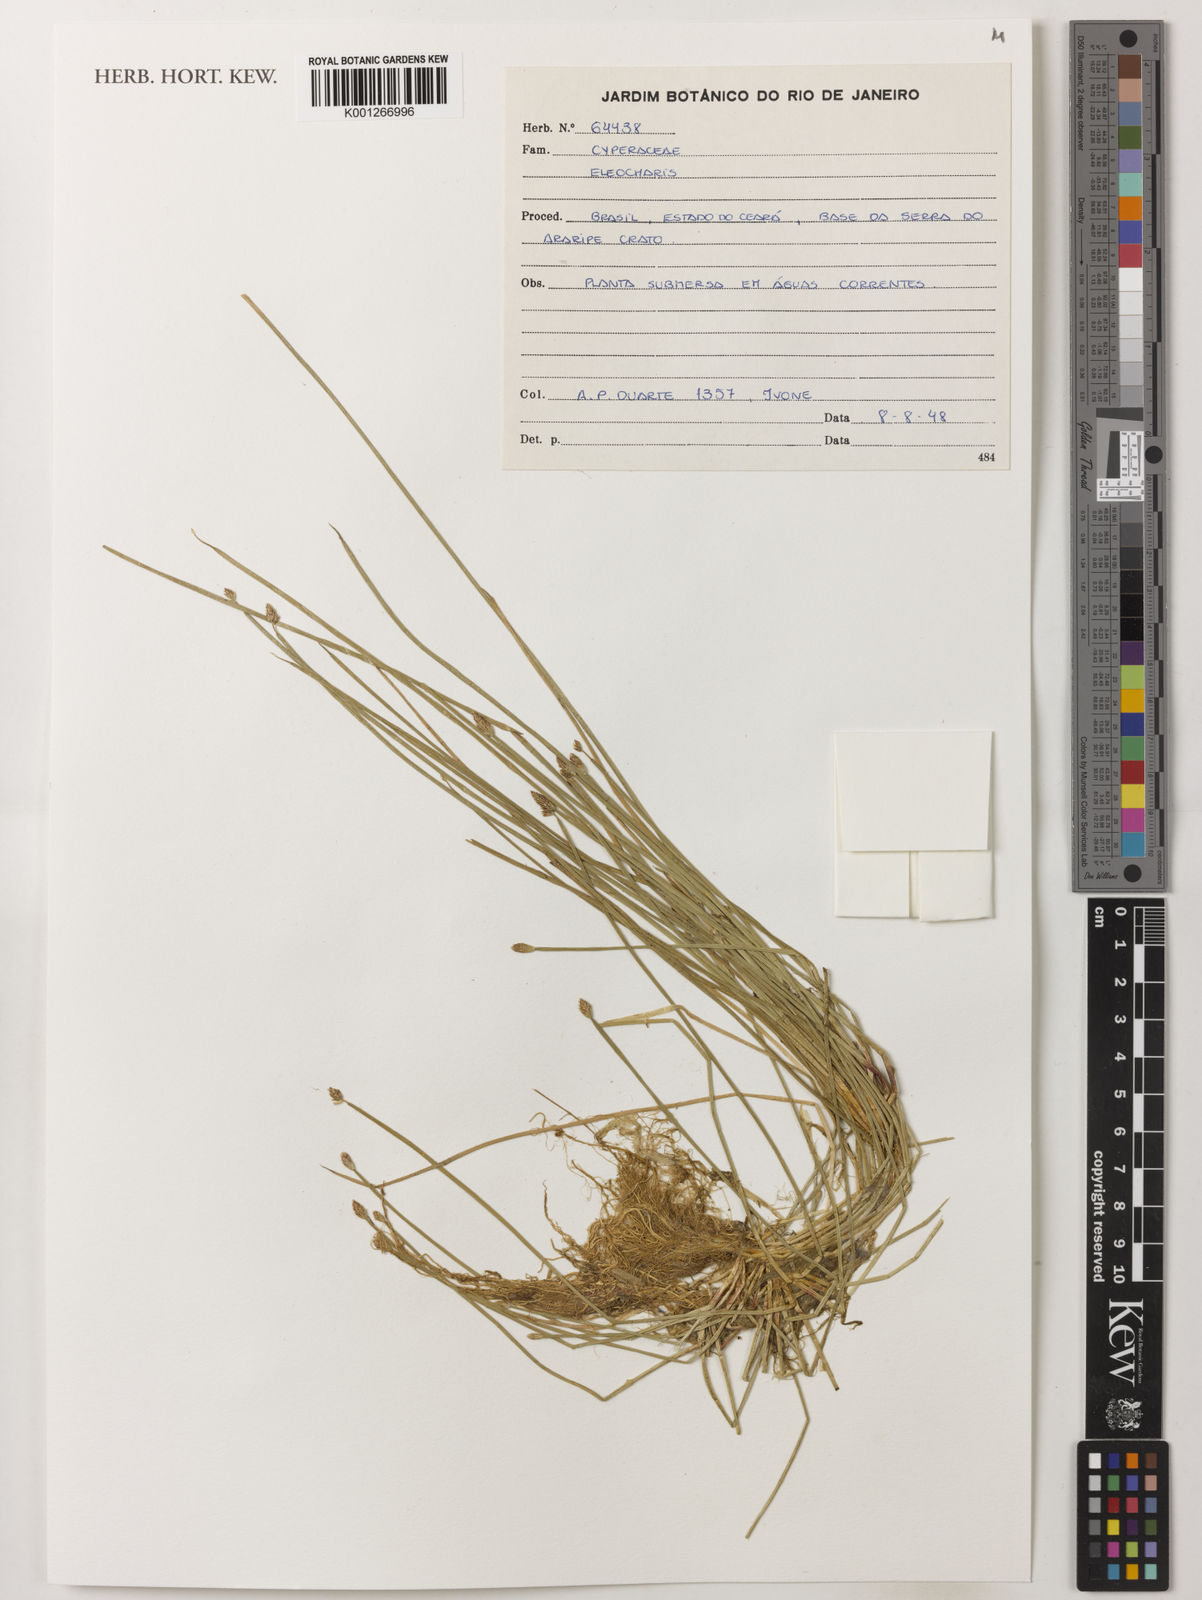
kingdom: Plantae
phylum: Tracheophyta
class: Liliopsida
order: Poales
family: Cyperaceae
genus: Eleocharis
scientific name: Eleocharis
